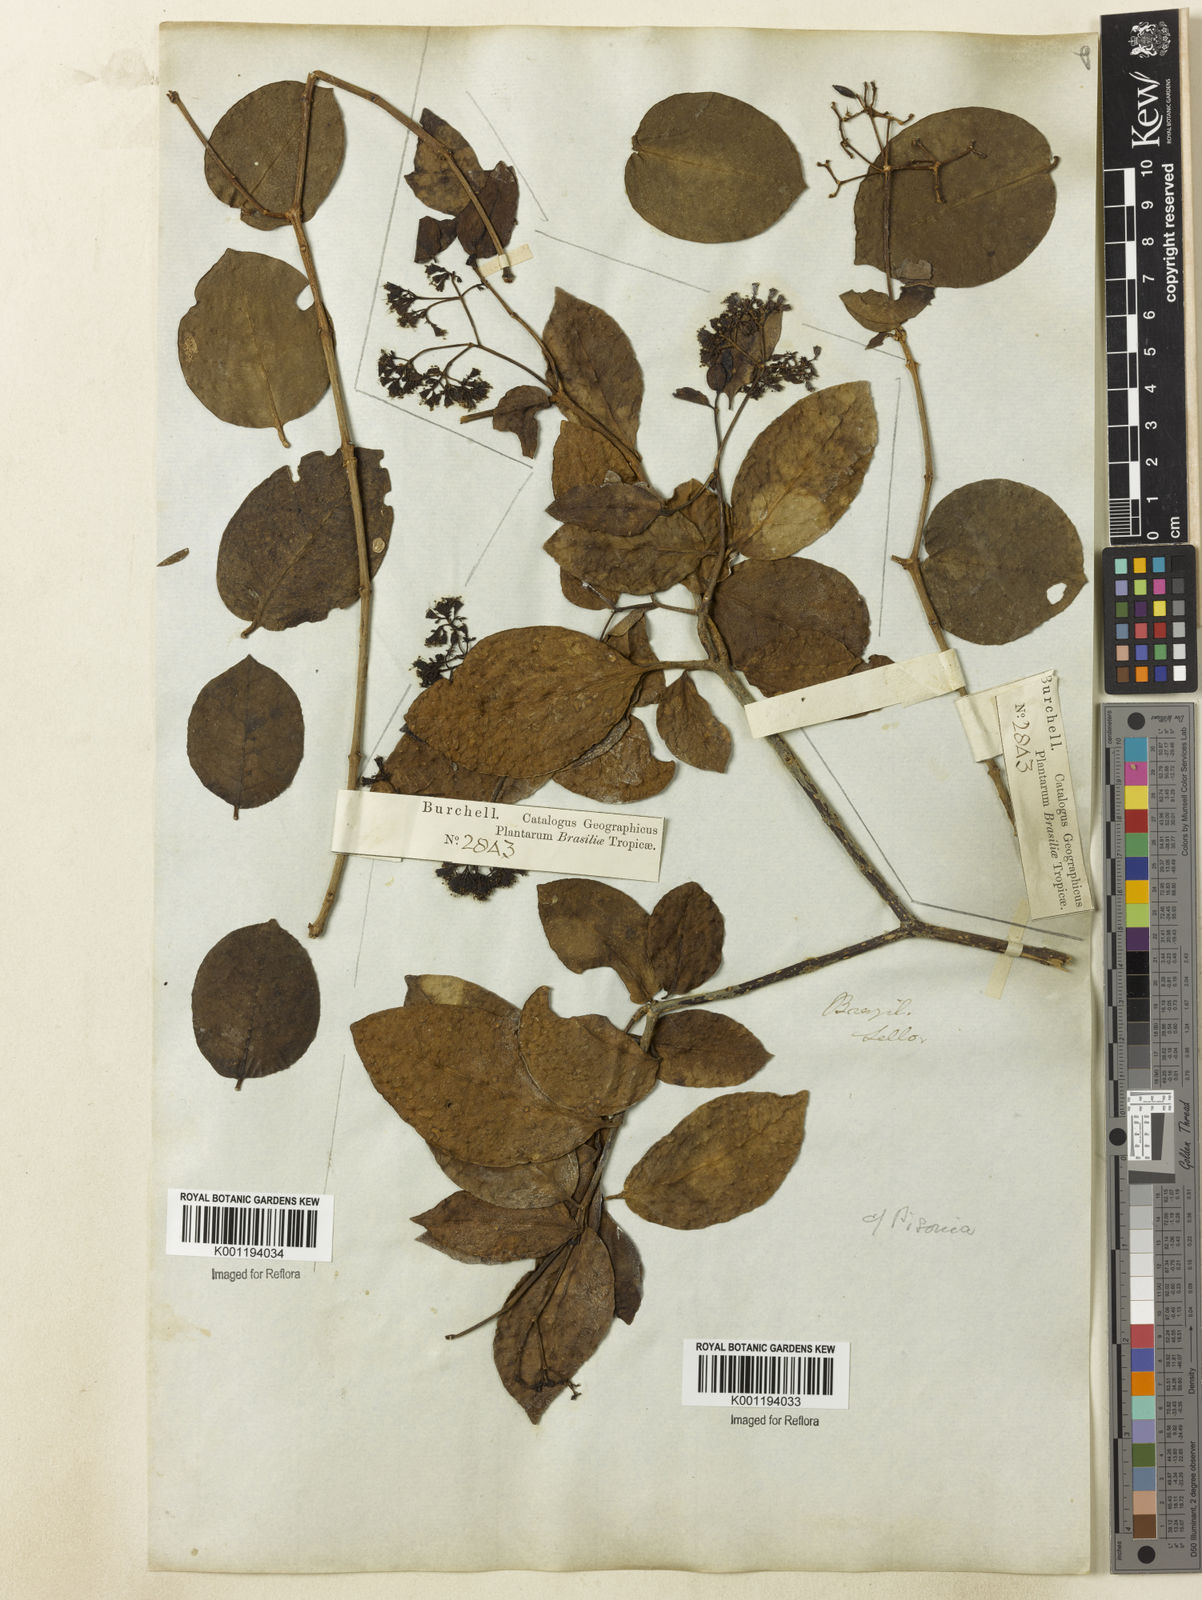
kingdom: Plantae
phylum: Tracheophyta
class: Magnoliopsida
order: Caryophyllales
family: Nyctaginaceae
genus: Guapira
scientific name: Guapira
